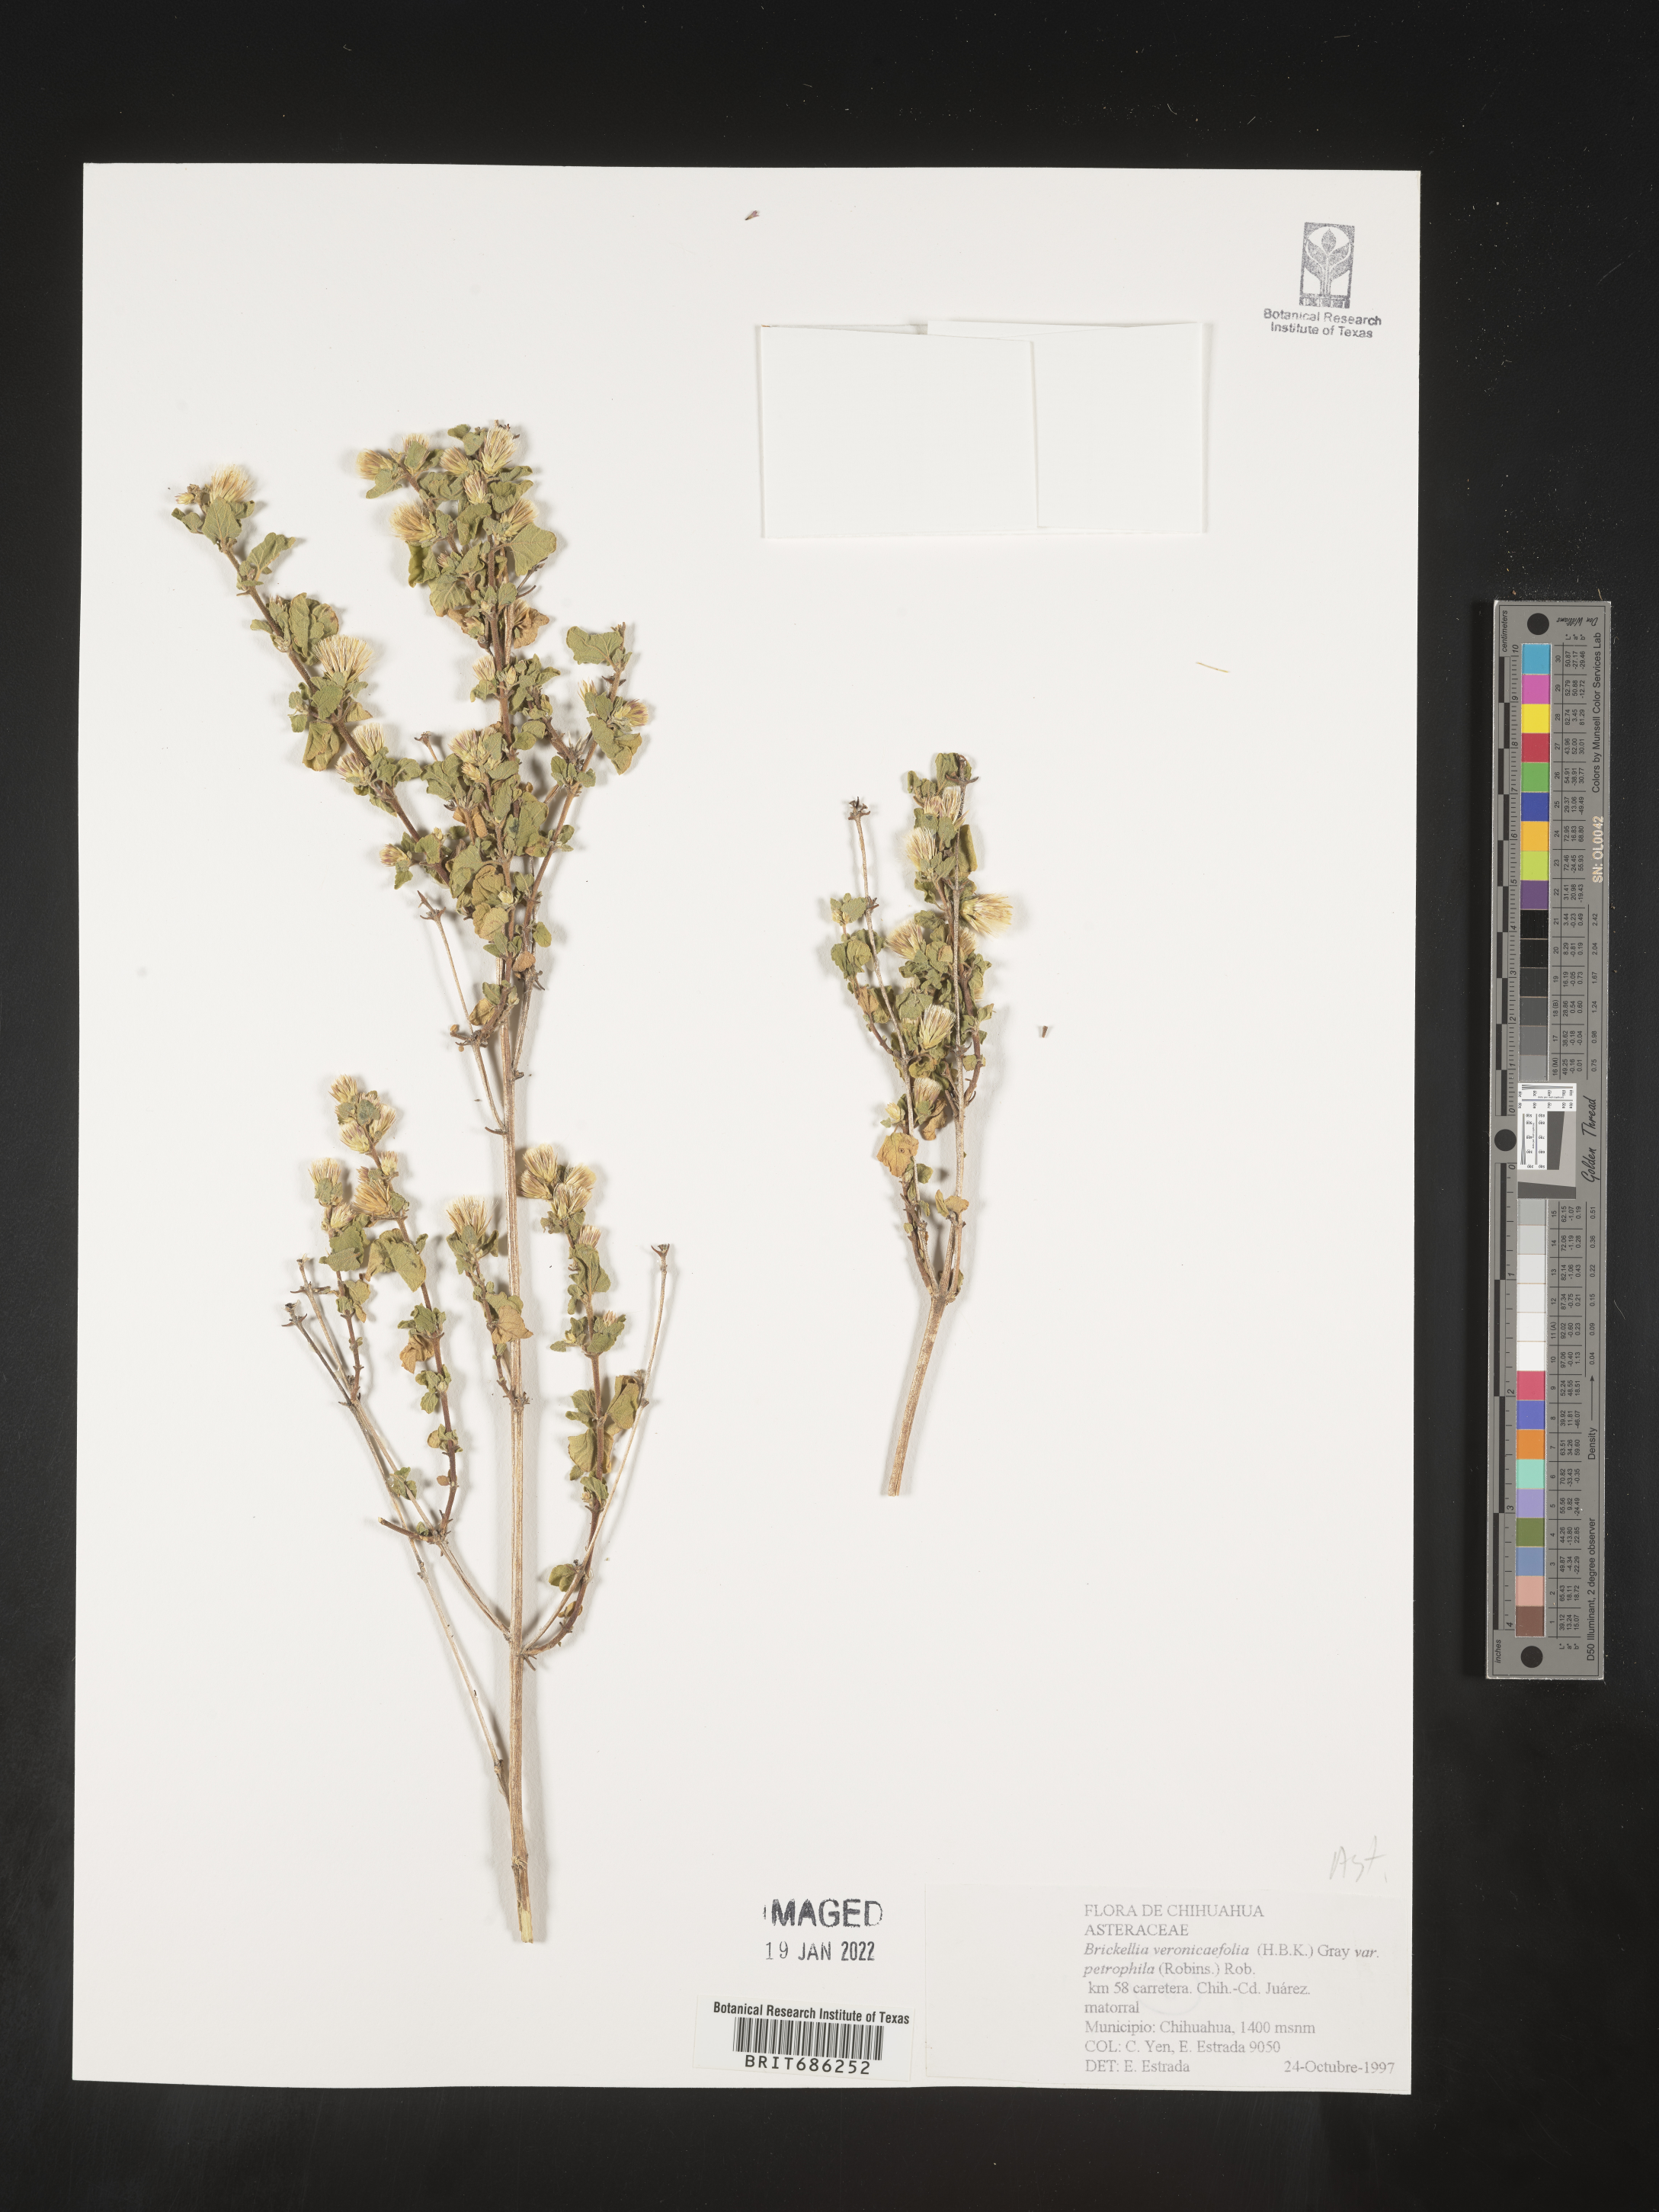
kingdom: Plantae
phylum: Tracheophyta
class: Magnoliopsida
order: Asterales
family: Asteraceae
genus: Brickellia
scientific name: Brickellia veronicifolia
